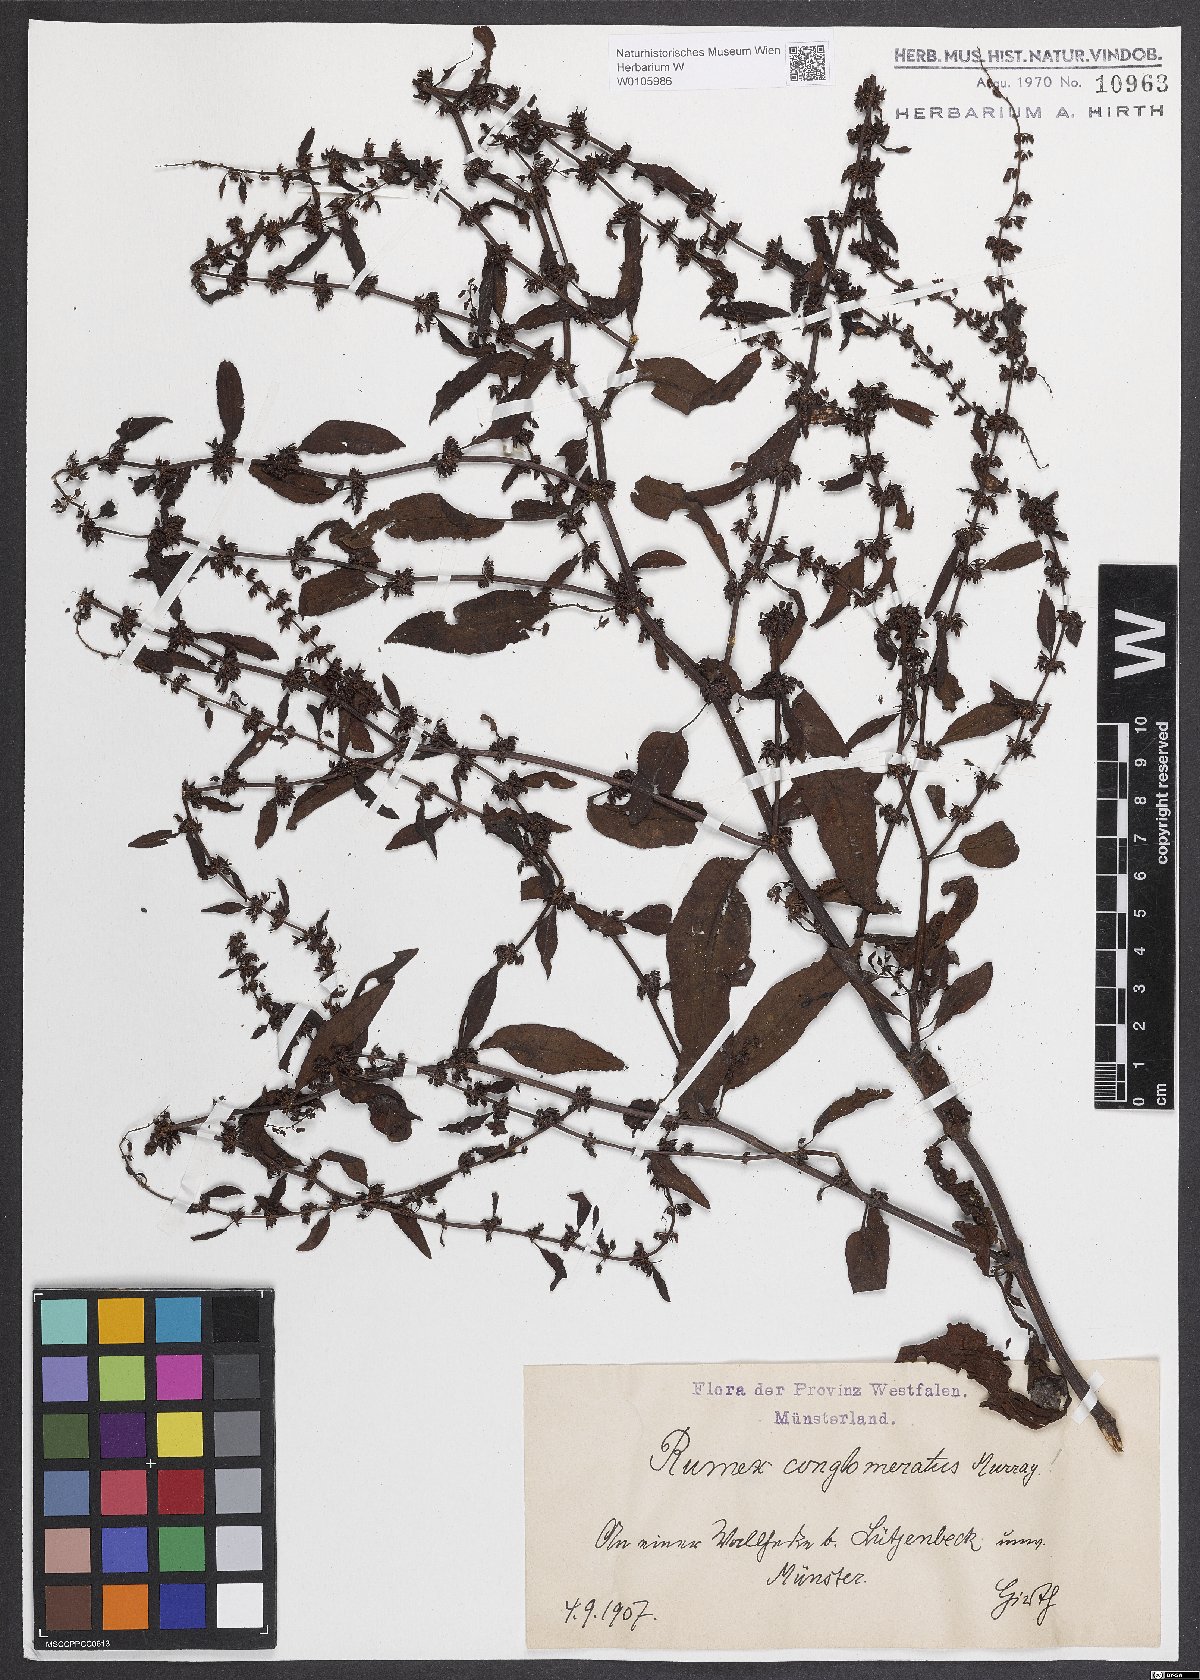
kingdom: Plantae
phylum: Tracheophyta
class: Magnoliopsida
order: Caryophyllales
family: Polygonaceae
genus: Rumex
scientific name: Rumex conglomeratus
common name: Clustered dock
